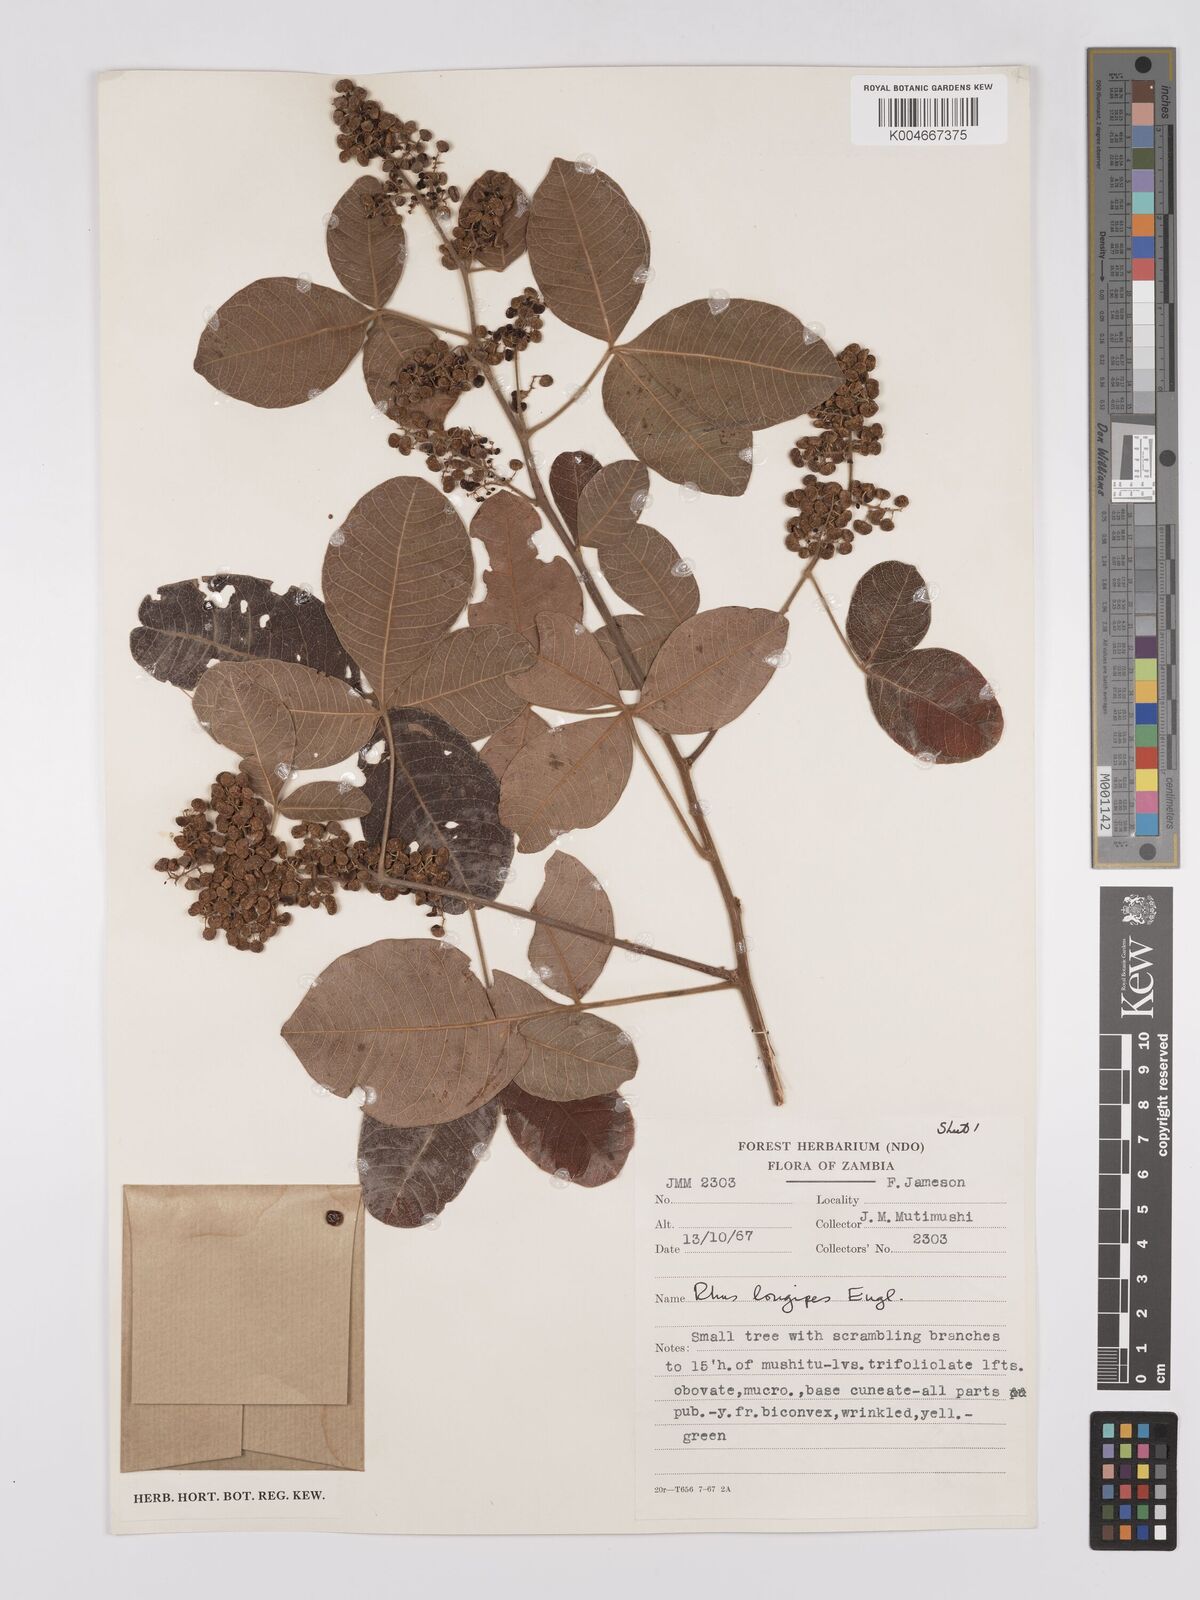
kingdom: Plantae
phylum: Tracheophyta
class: Magnoliopsida
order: Sapindales
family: Anacardiaceae
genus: Searsia
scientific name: Searsia longipes
